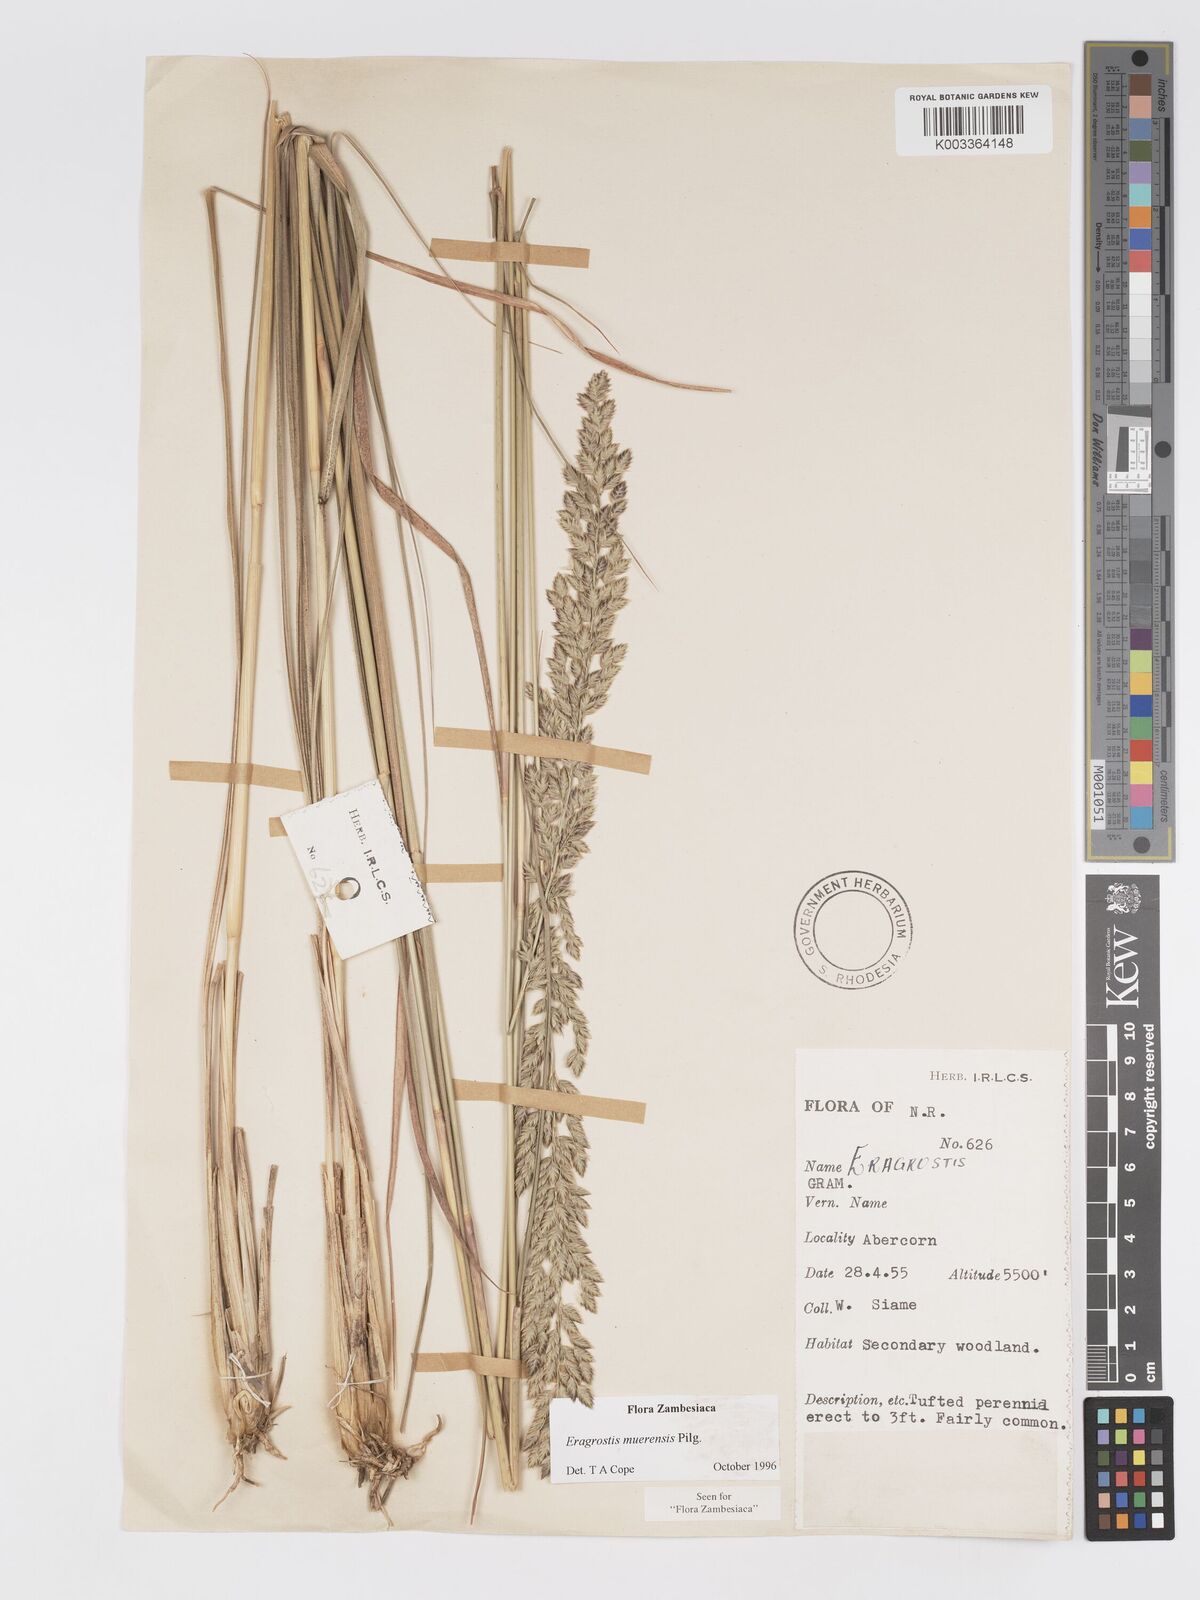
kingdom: Plantae
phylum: Tracheophyta
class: Liliopsida
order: Poales
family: Poaceae
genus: Eragrostis
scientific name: Eragrostis muerensis
